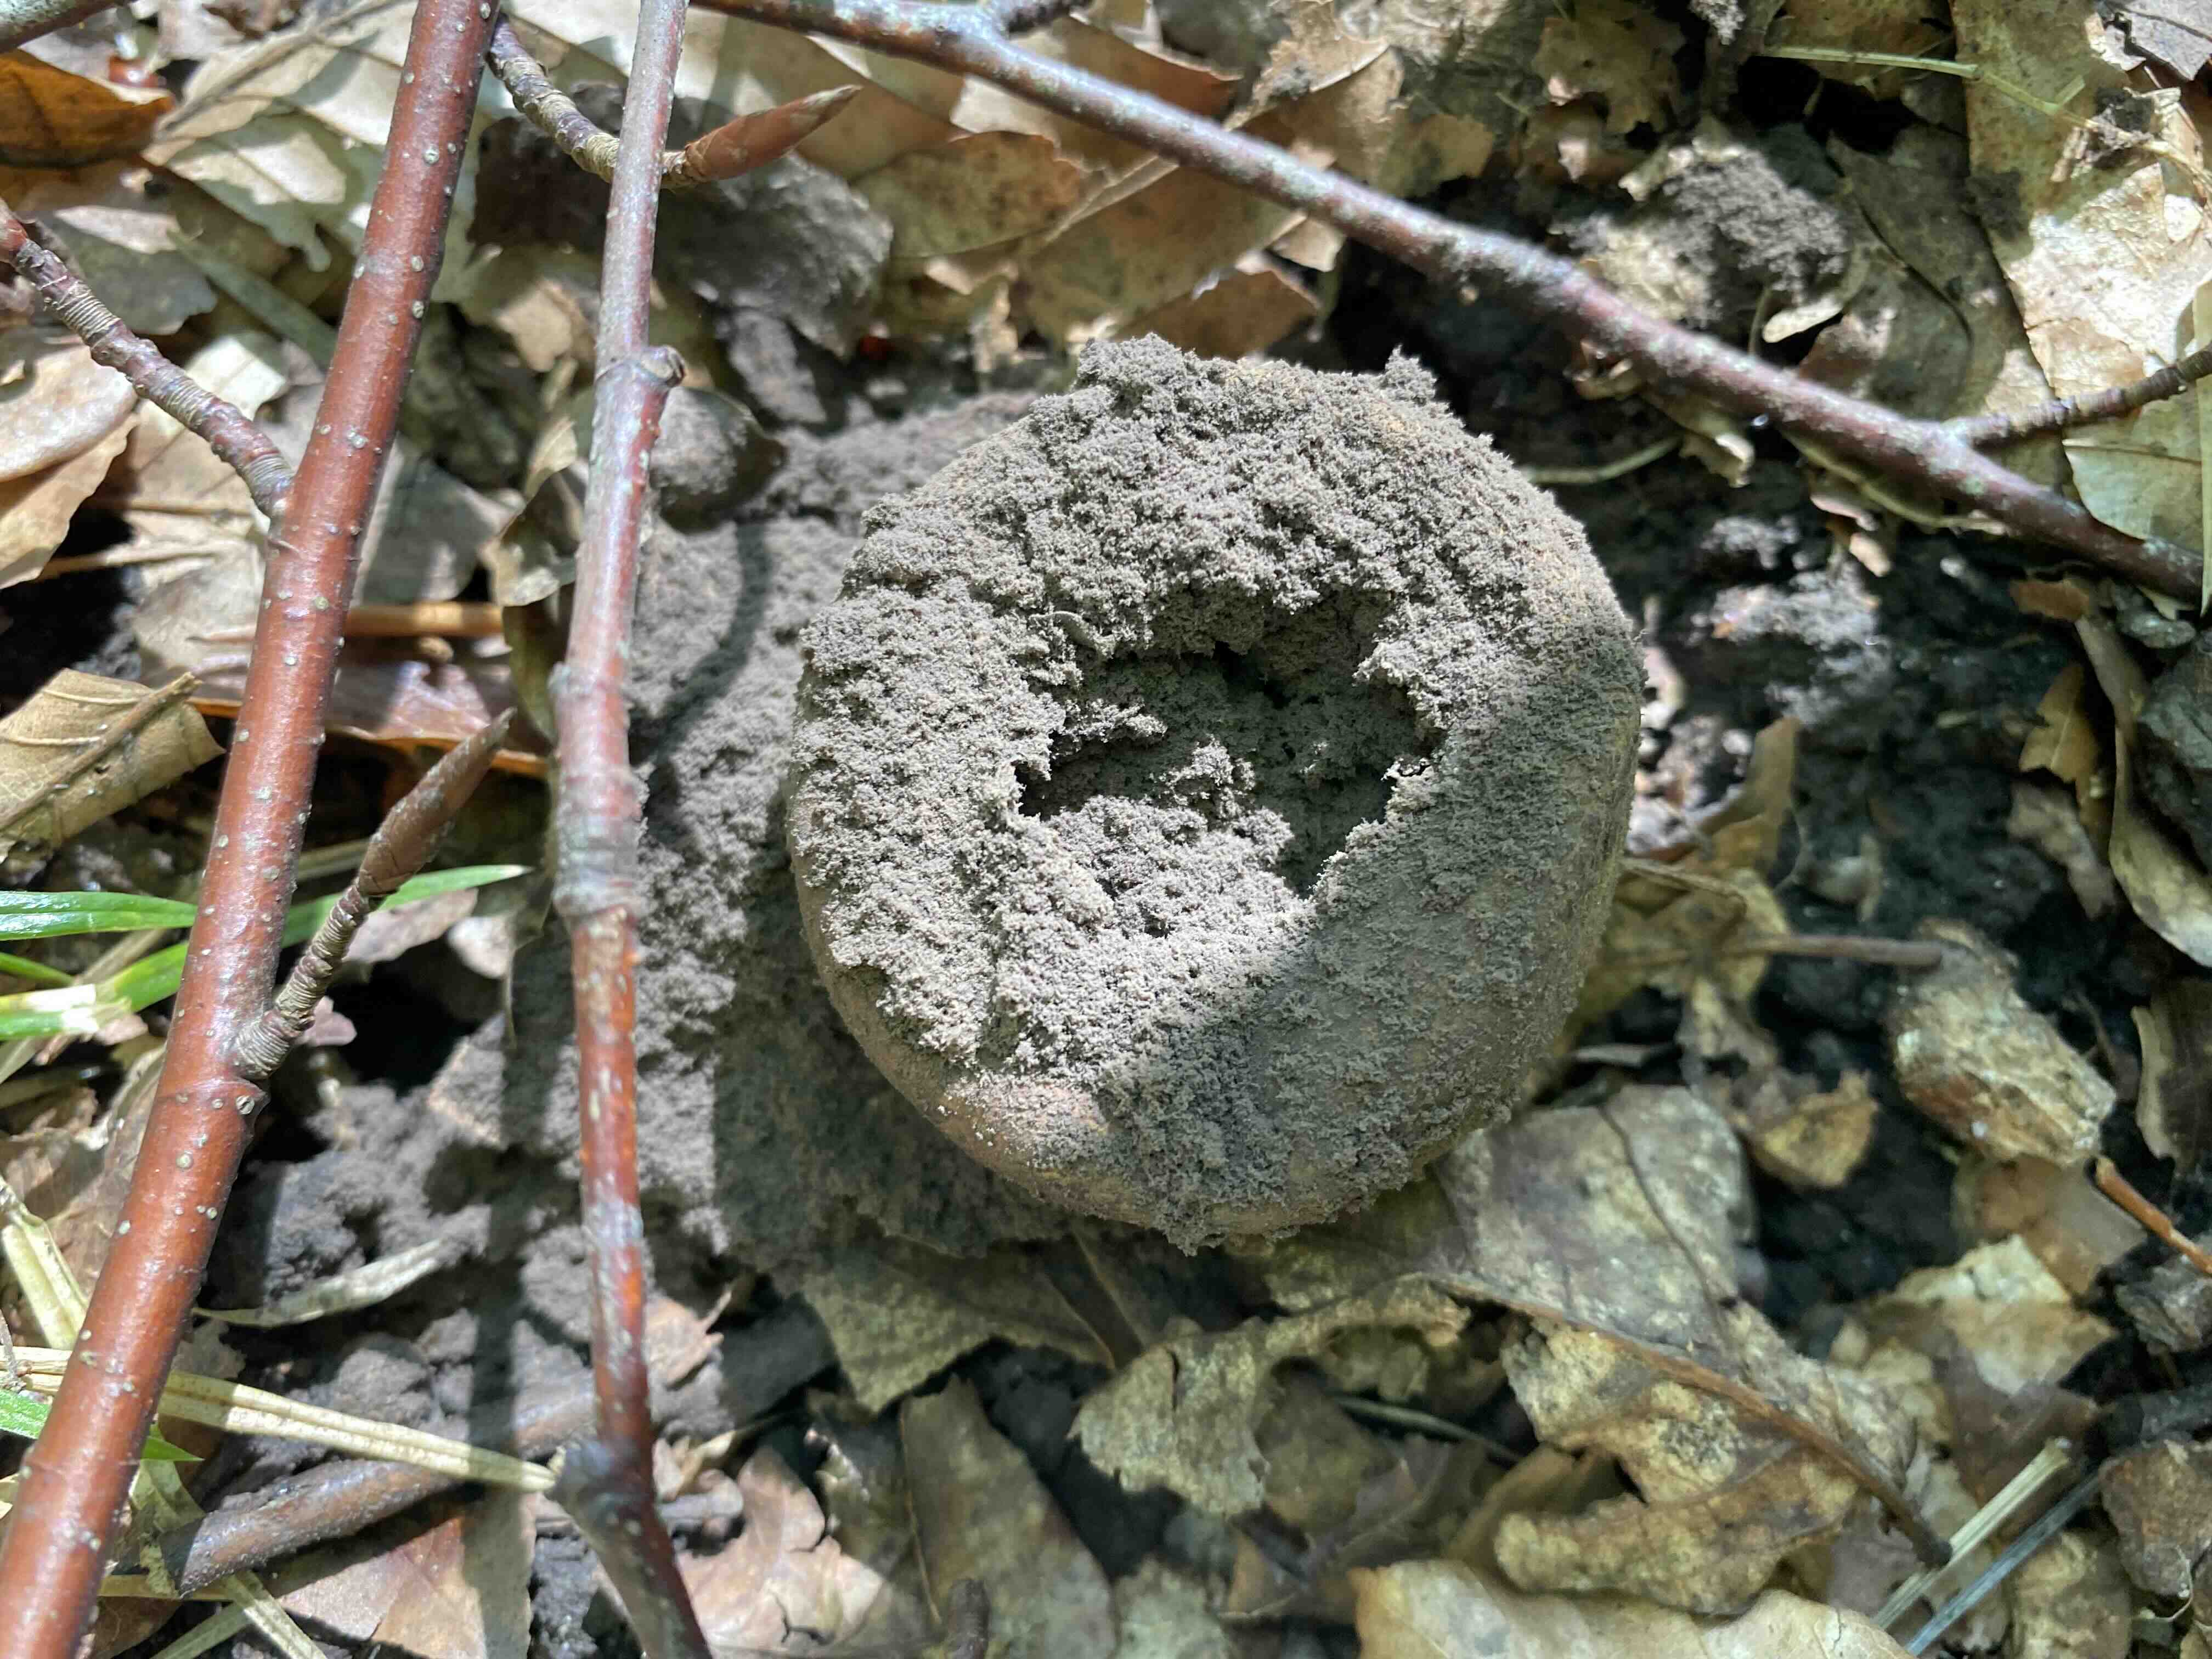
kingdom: Fungi
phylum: Basidiomycota
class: Agaricomycetes
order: Boletales
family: Sclerodermataceae
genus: Scleroderma
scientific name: Scleroderma citrinum
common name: almindelig bruskbold
